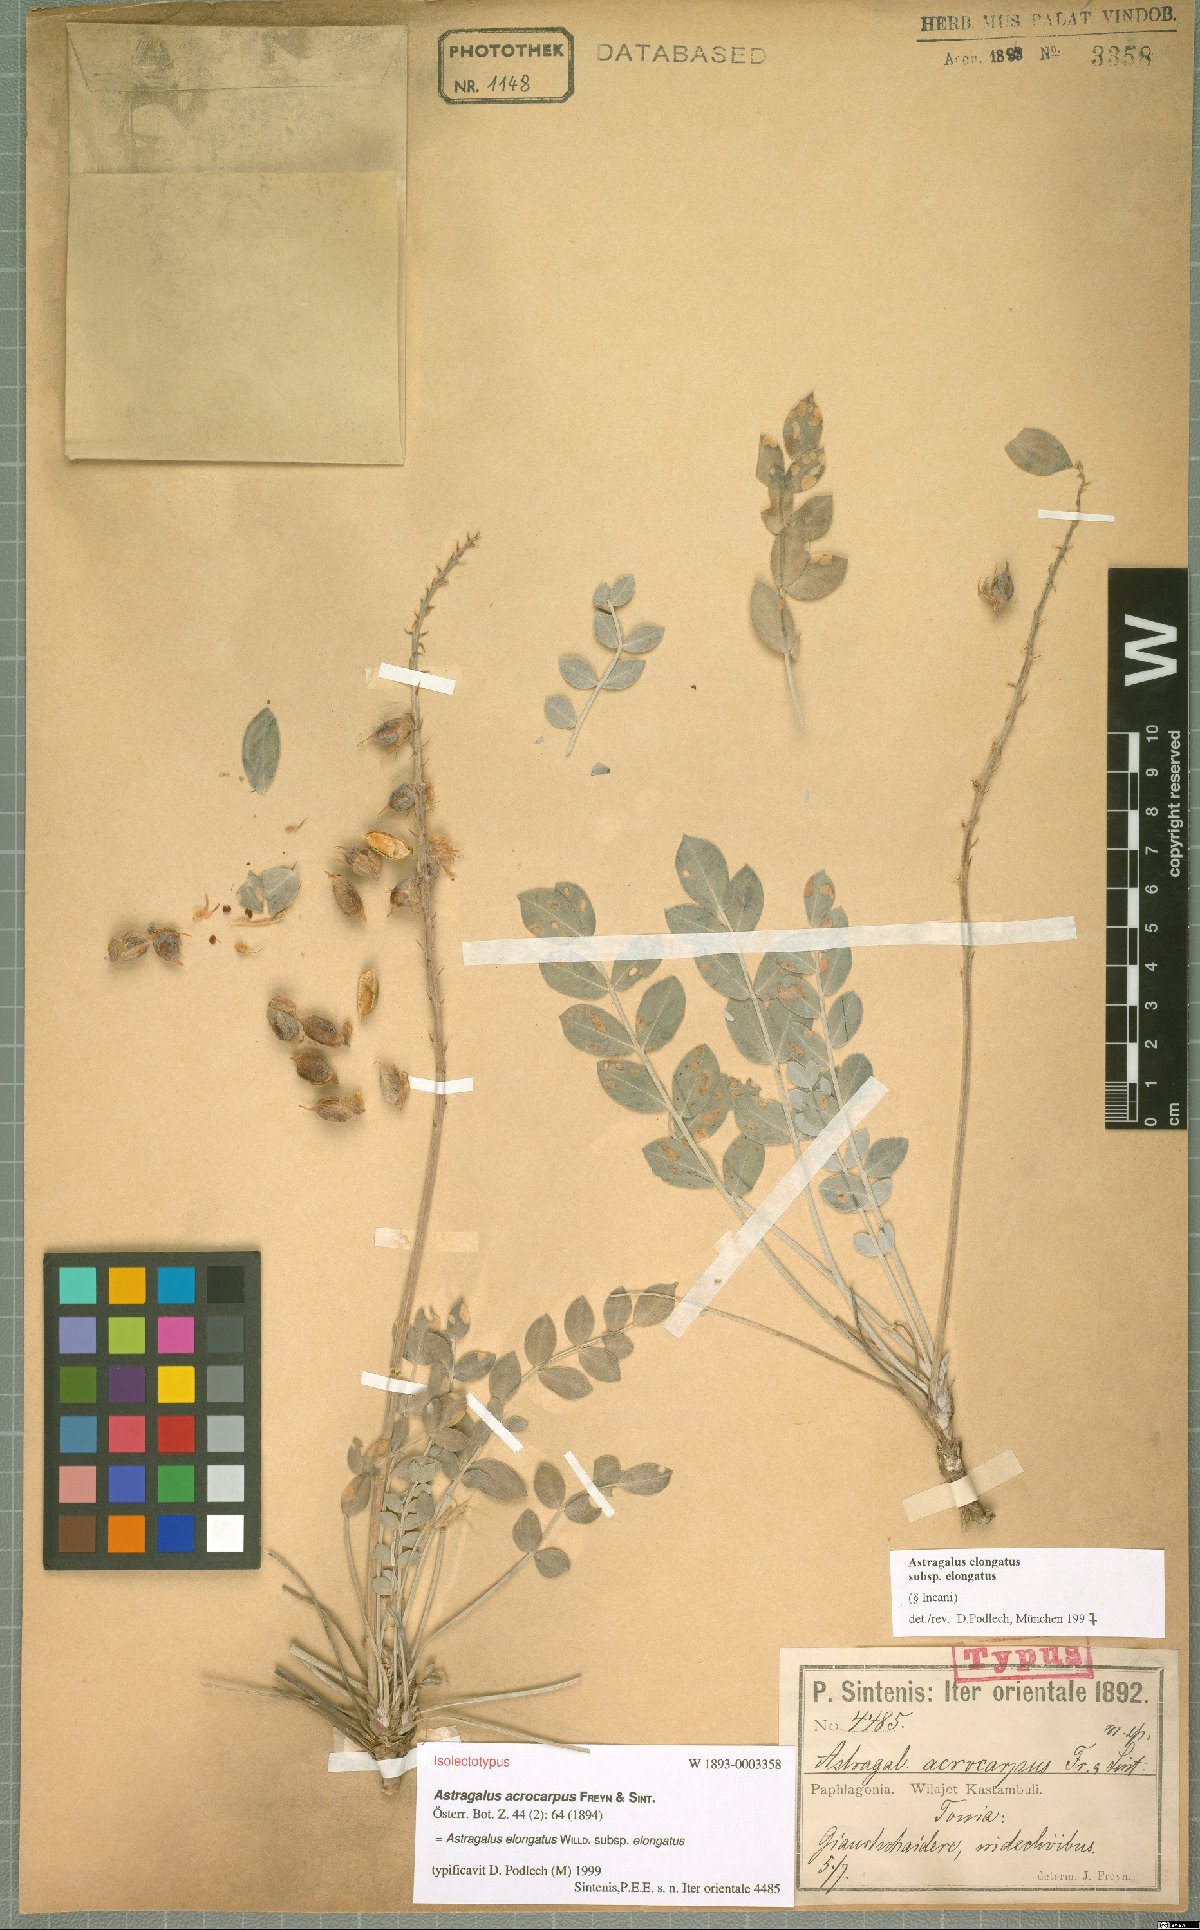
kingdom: Plantae
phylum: Tracheophyta
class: Magnoliopsida
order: Fabales
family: Fabaceae
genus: Astragalus
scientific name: Astragalus elongatus
